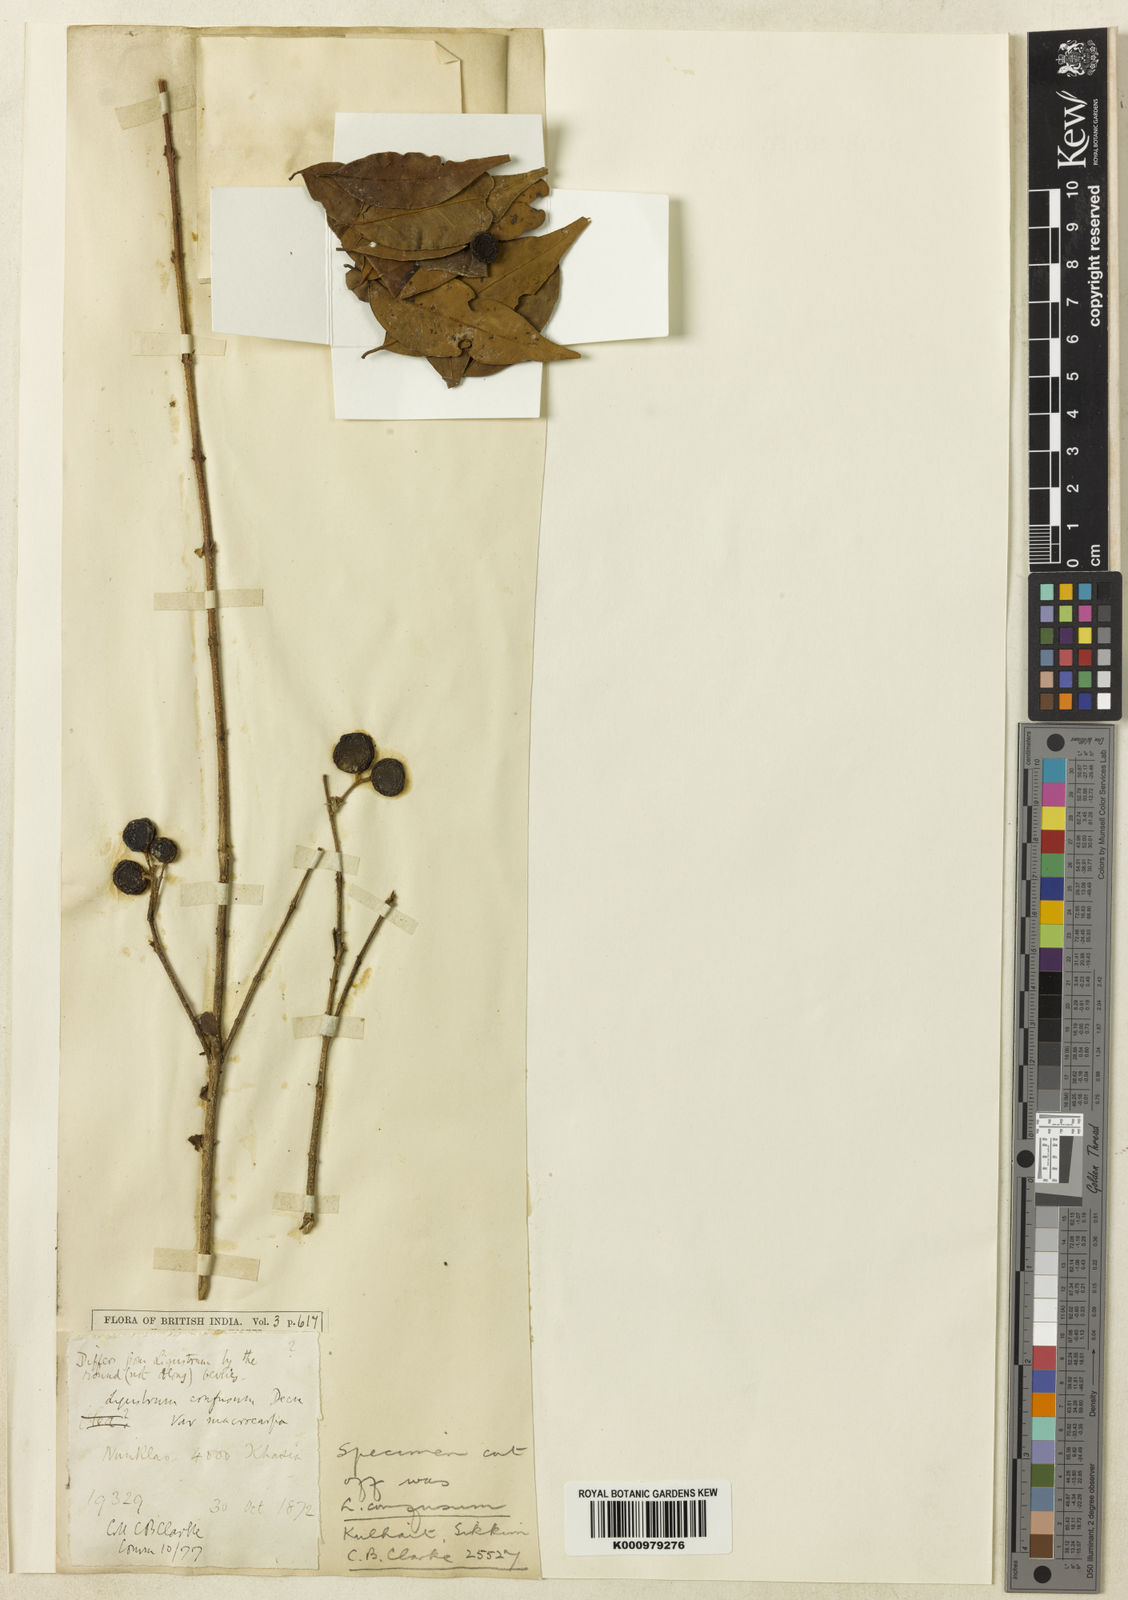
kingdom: Plantae
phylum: Tracheophyta
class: Magnoliopsida
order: Lamiales
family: Oleaceae
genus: Ligustrum
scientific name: Ligustrum confusum
